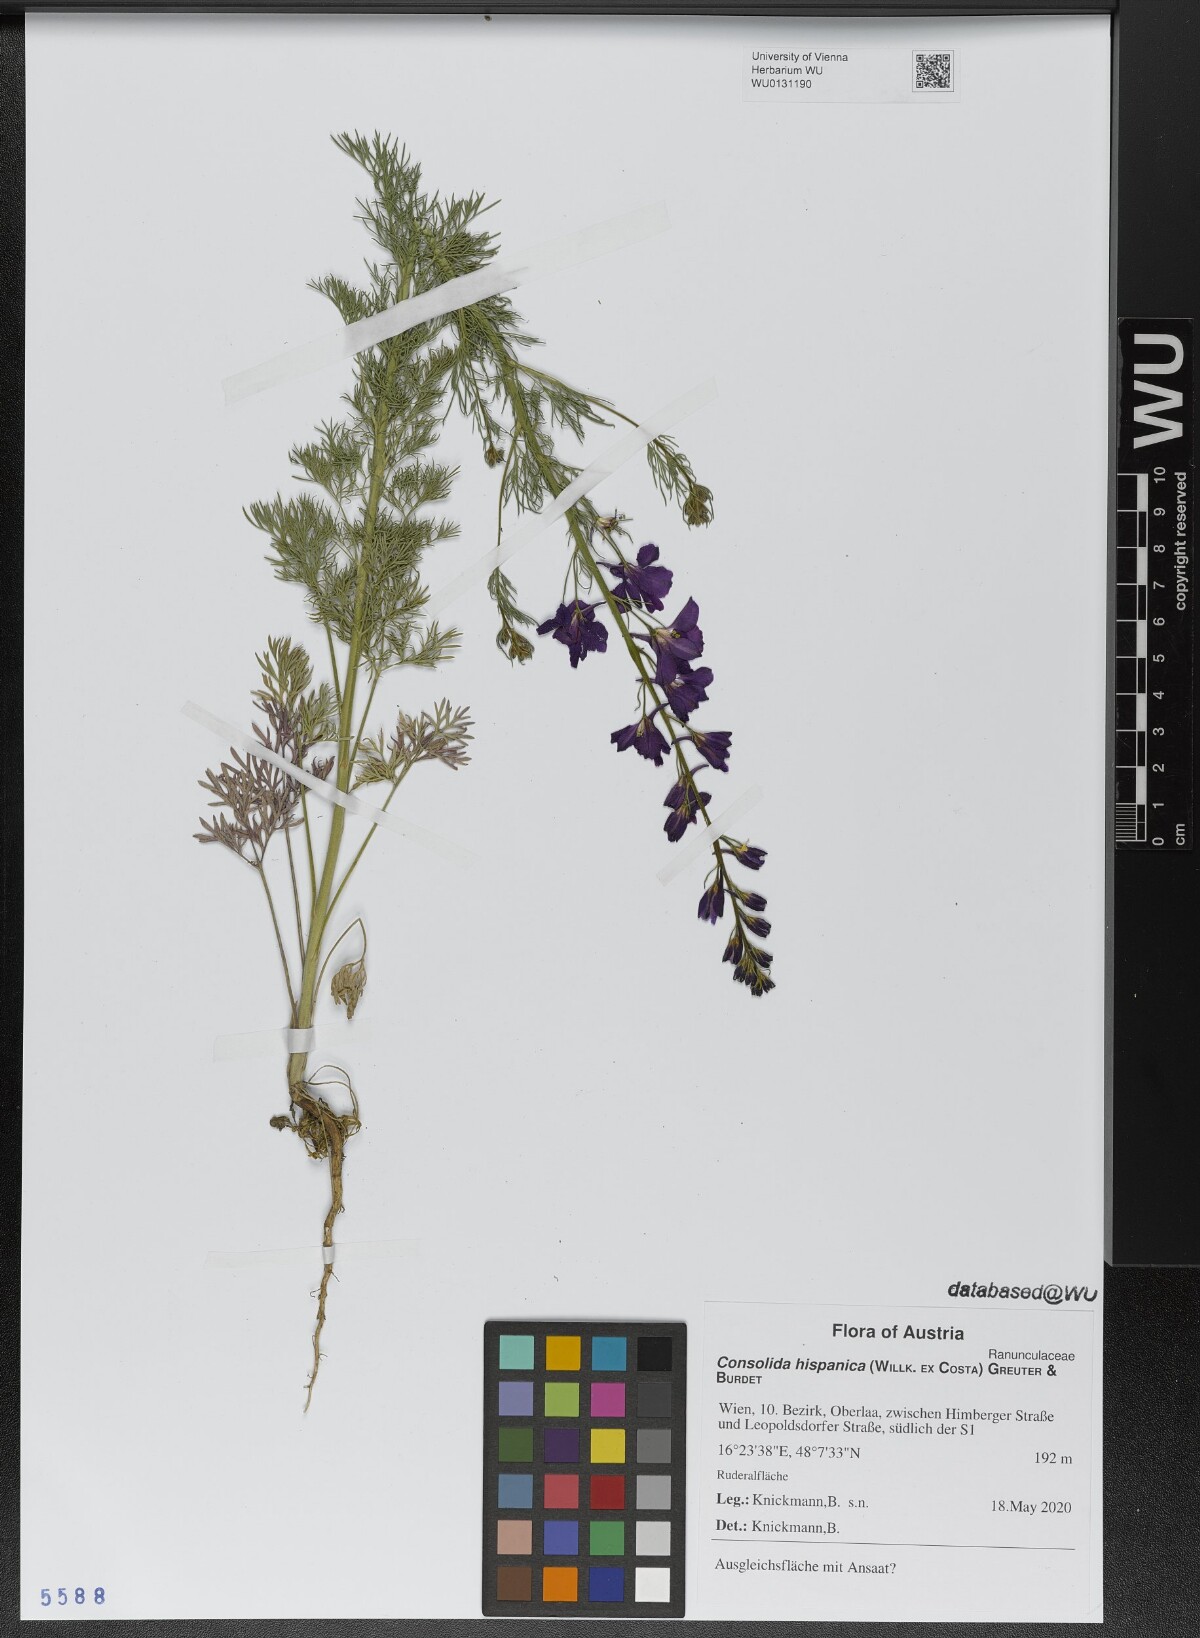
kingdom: Plantae
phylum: Tracheophyta
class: Magnoliopsida
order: Ranunculales
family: Ranunculaceae
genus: Delphinium
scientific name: Delphinium hispanicum
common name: Oriental knight's-spur
